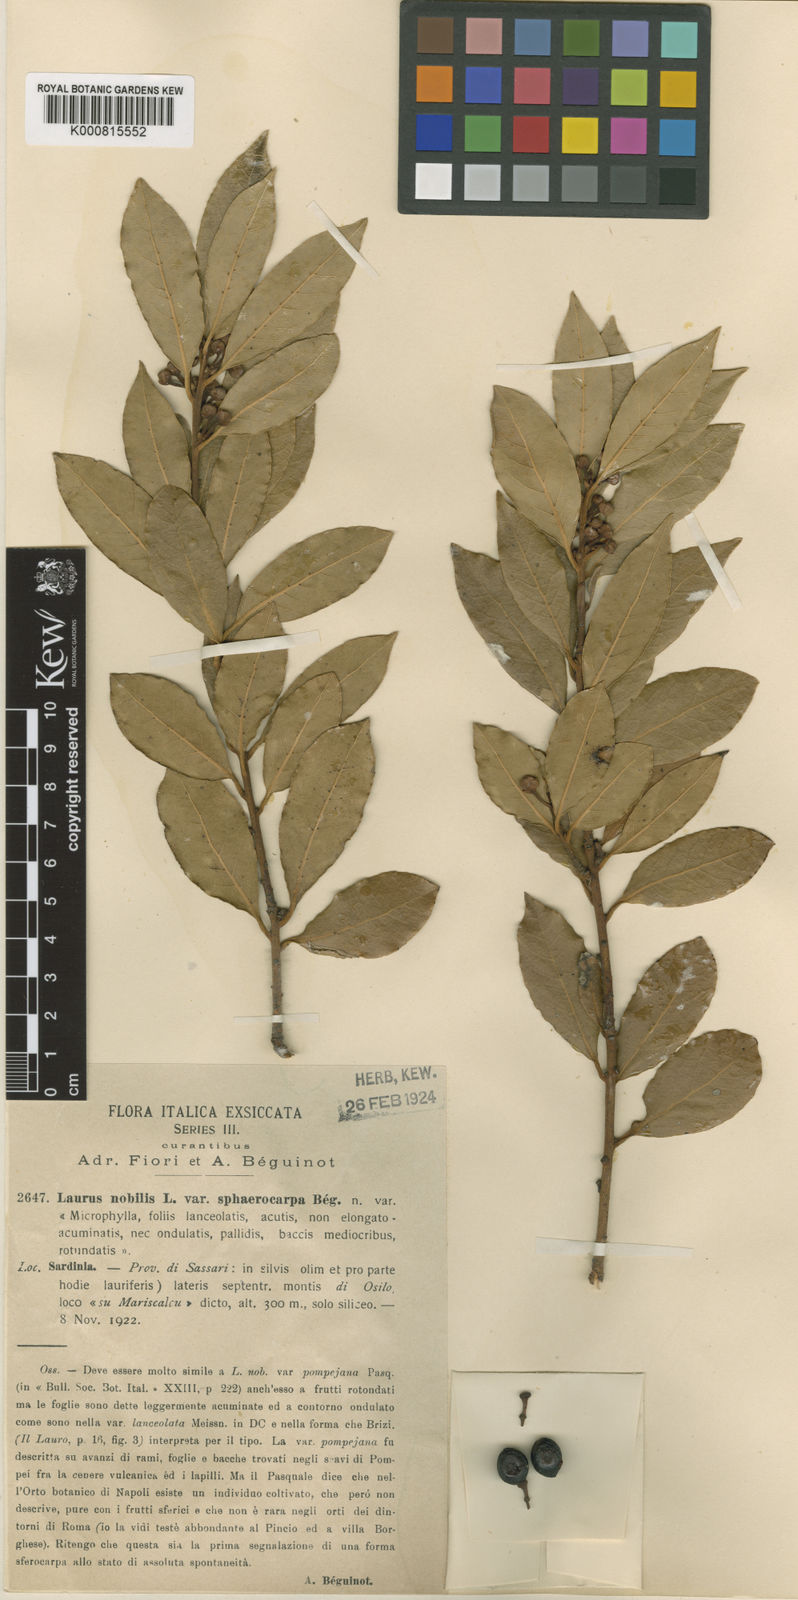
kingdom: Plantae
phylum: Tracheophyta
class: Magnoliopsida
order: Laurales
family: Lauraceae
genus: Laurus
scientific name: Laurus nobilis
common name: Bay
